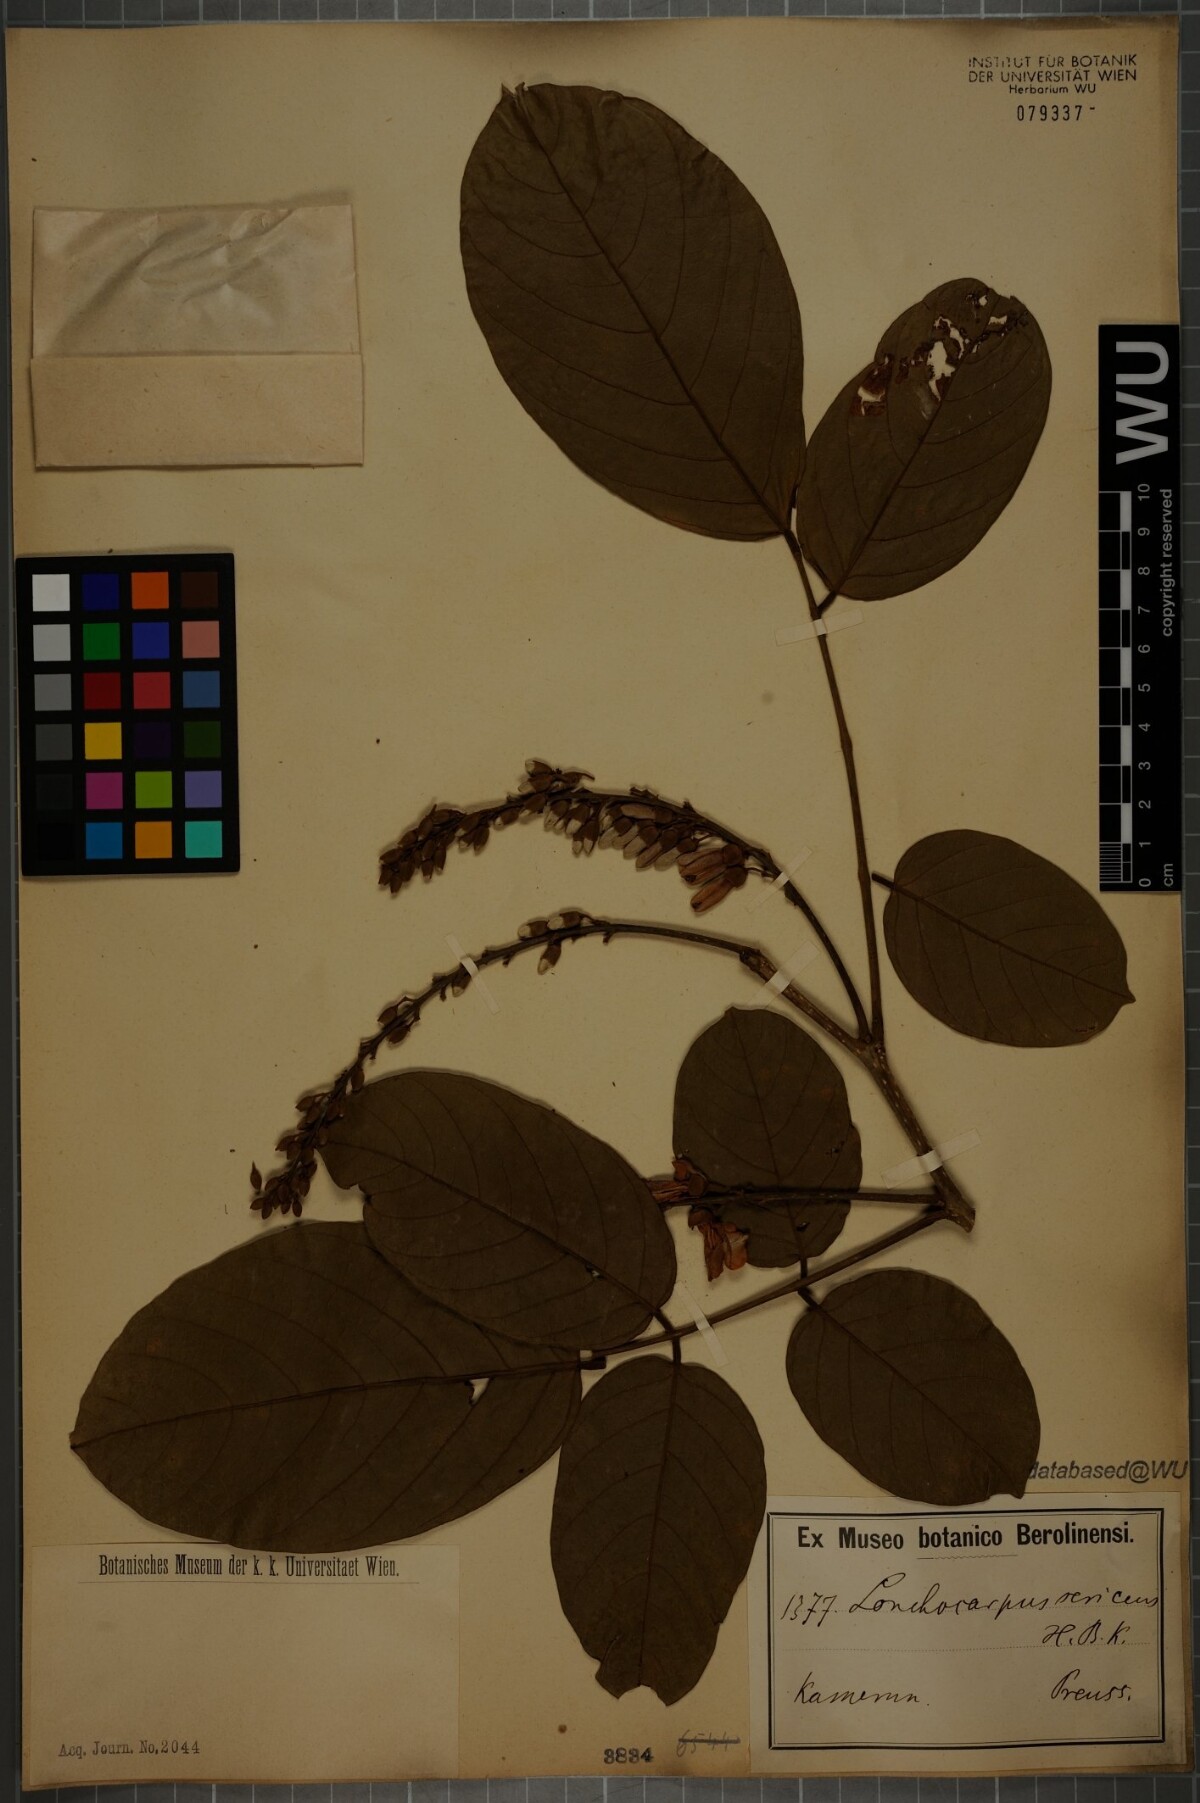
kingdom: Plantae
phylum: Tracheophyta
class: Magnoliopsida
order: Fabales
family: Fabaceae
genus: Lonchocarpus
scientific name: Lonchocarpus sericeus
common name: Savonette
